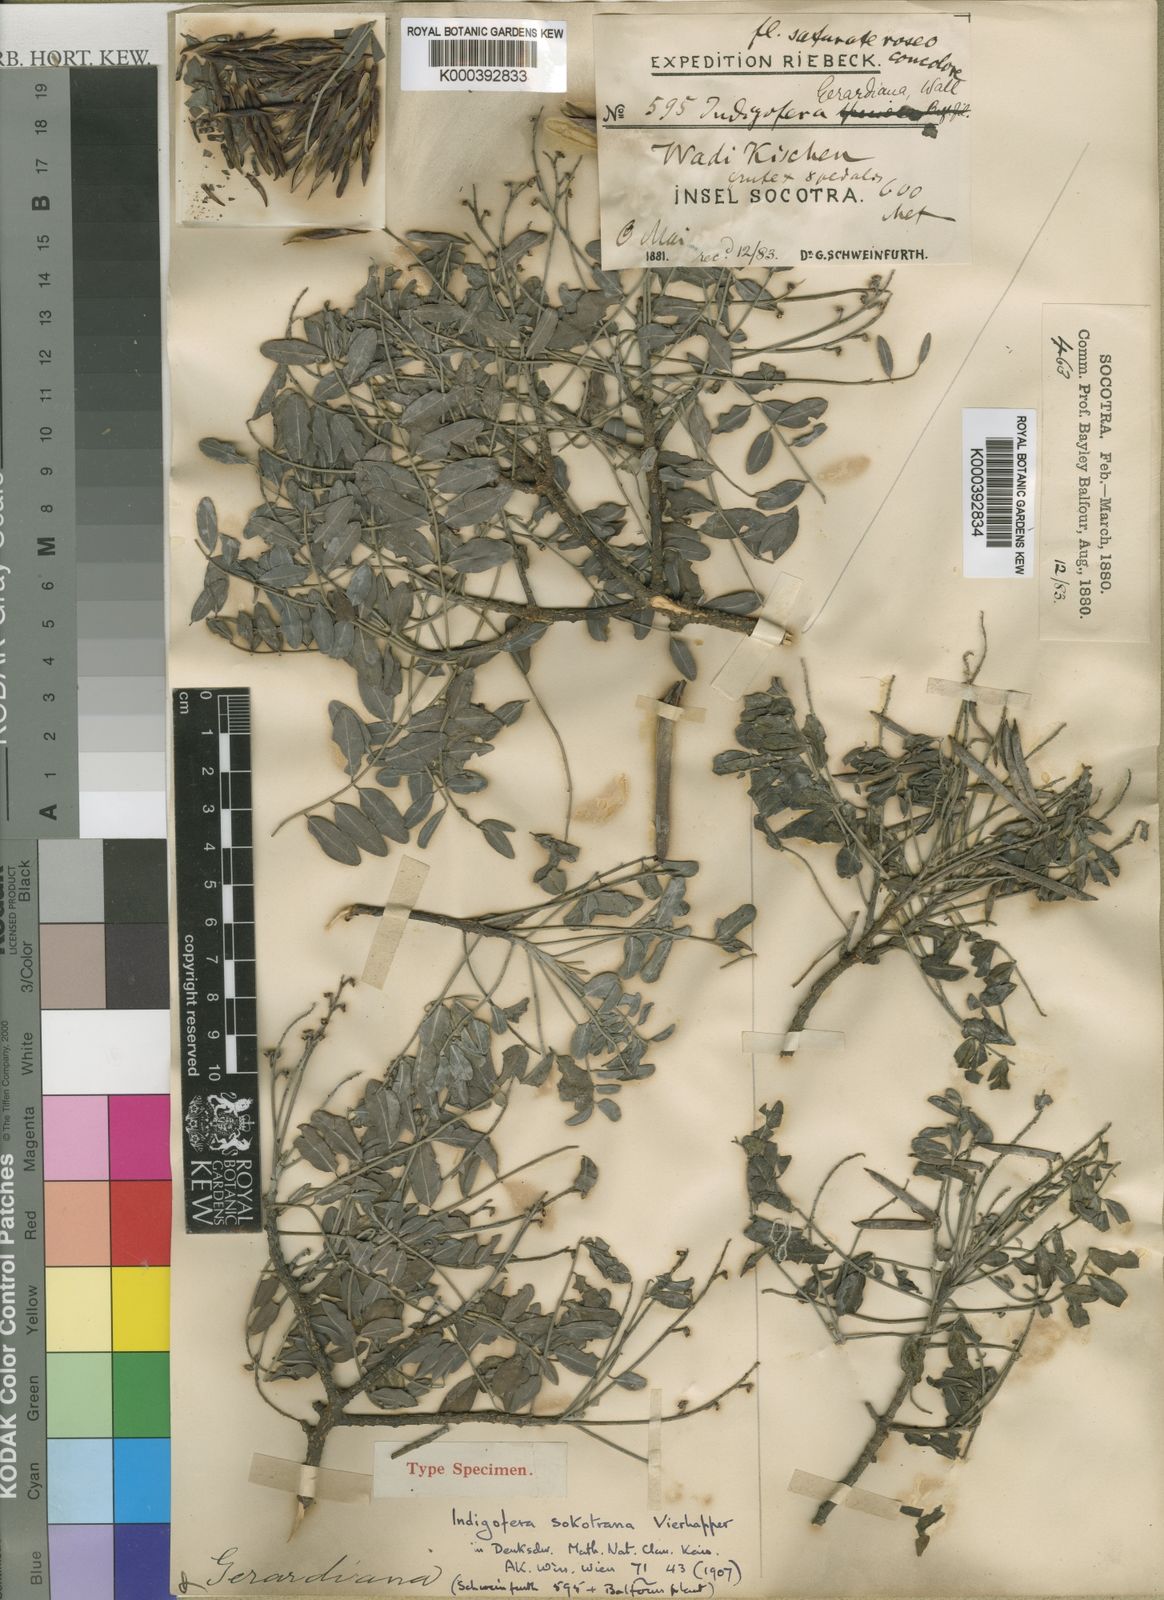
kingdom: Plantae
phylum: Tracheophyta
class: Magnoliopsida
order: Fabales
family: Fabaceae
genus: Indigofera
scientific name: Indigofera sokotrana
